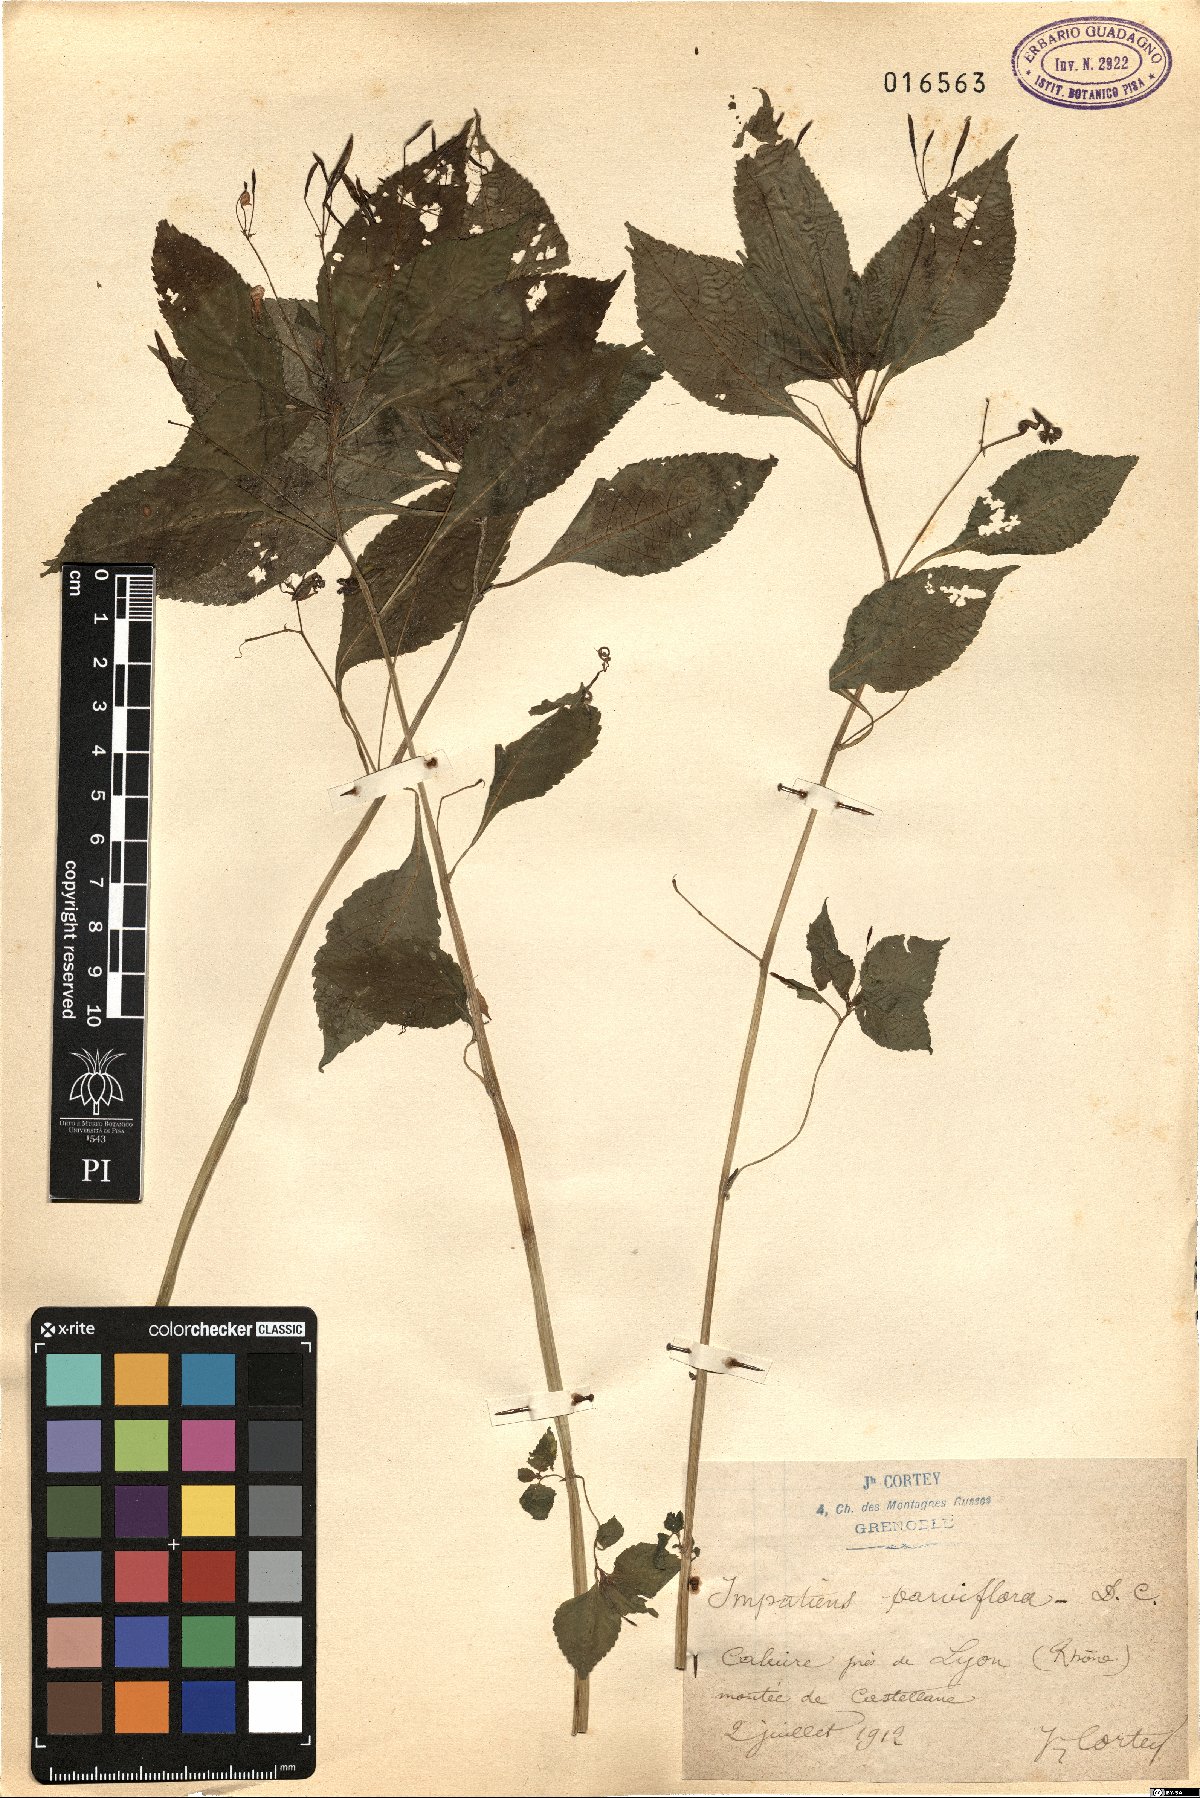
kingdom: Plantae
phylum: Tracheophyta
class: Magnoliopsida
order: Ericales
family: Balsaminaceae
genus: Impatiens
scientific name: Impatiens parviflora
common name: Small balsam
